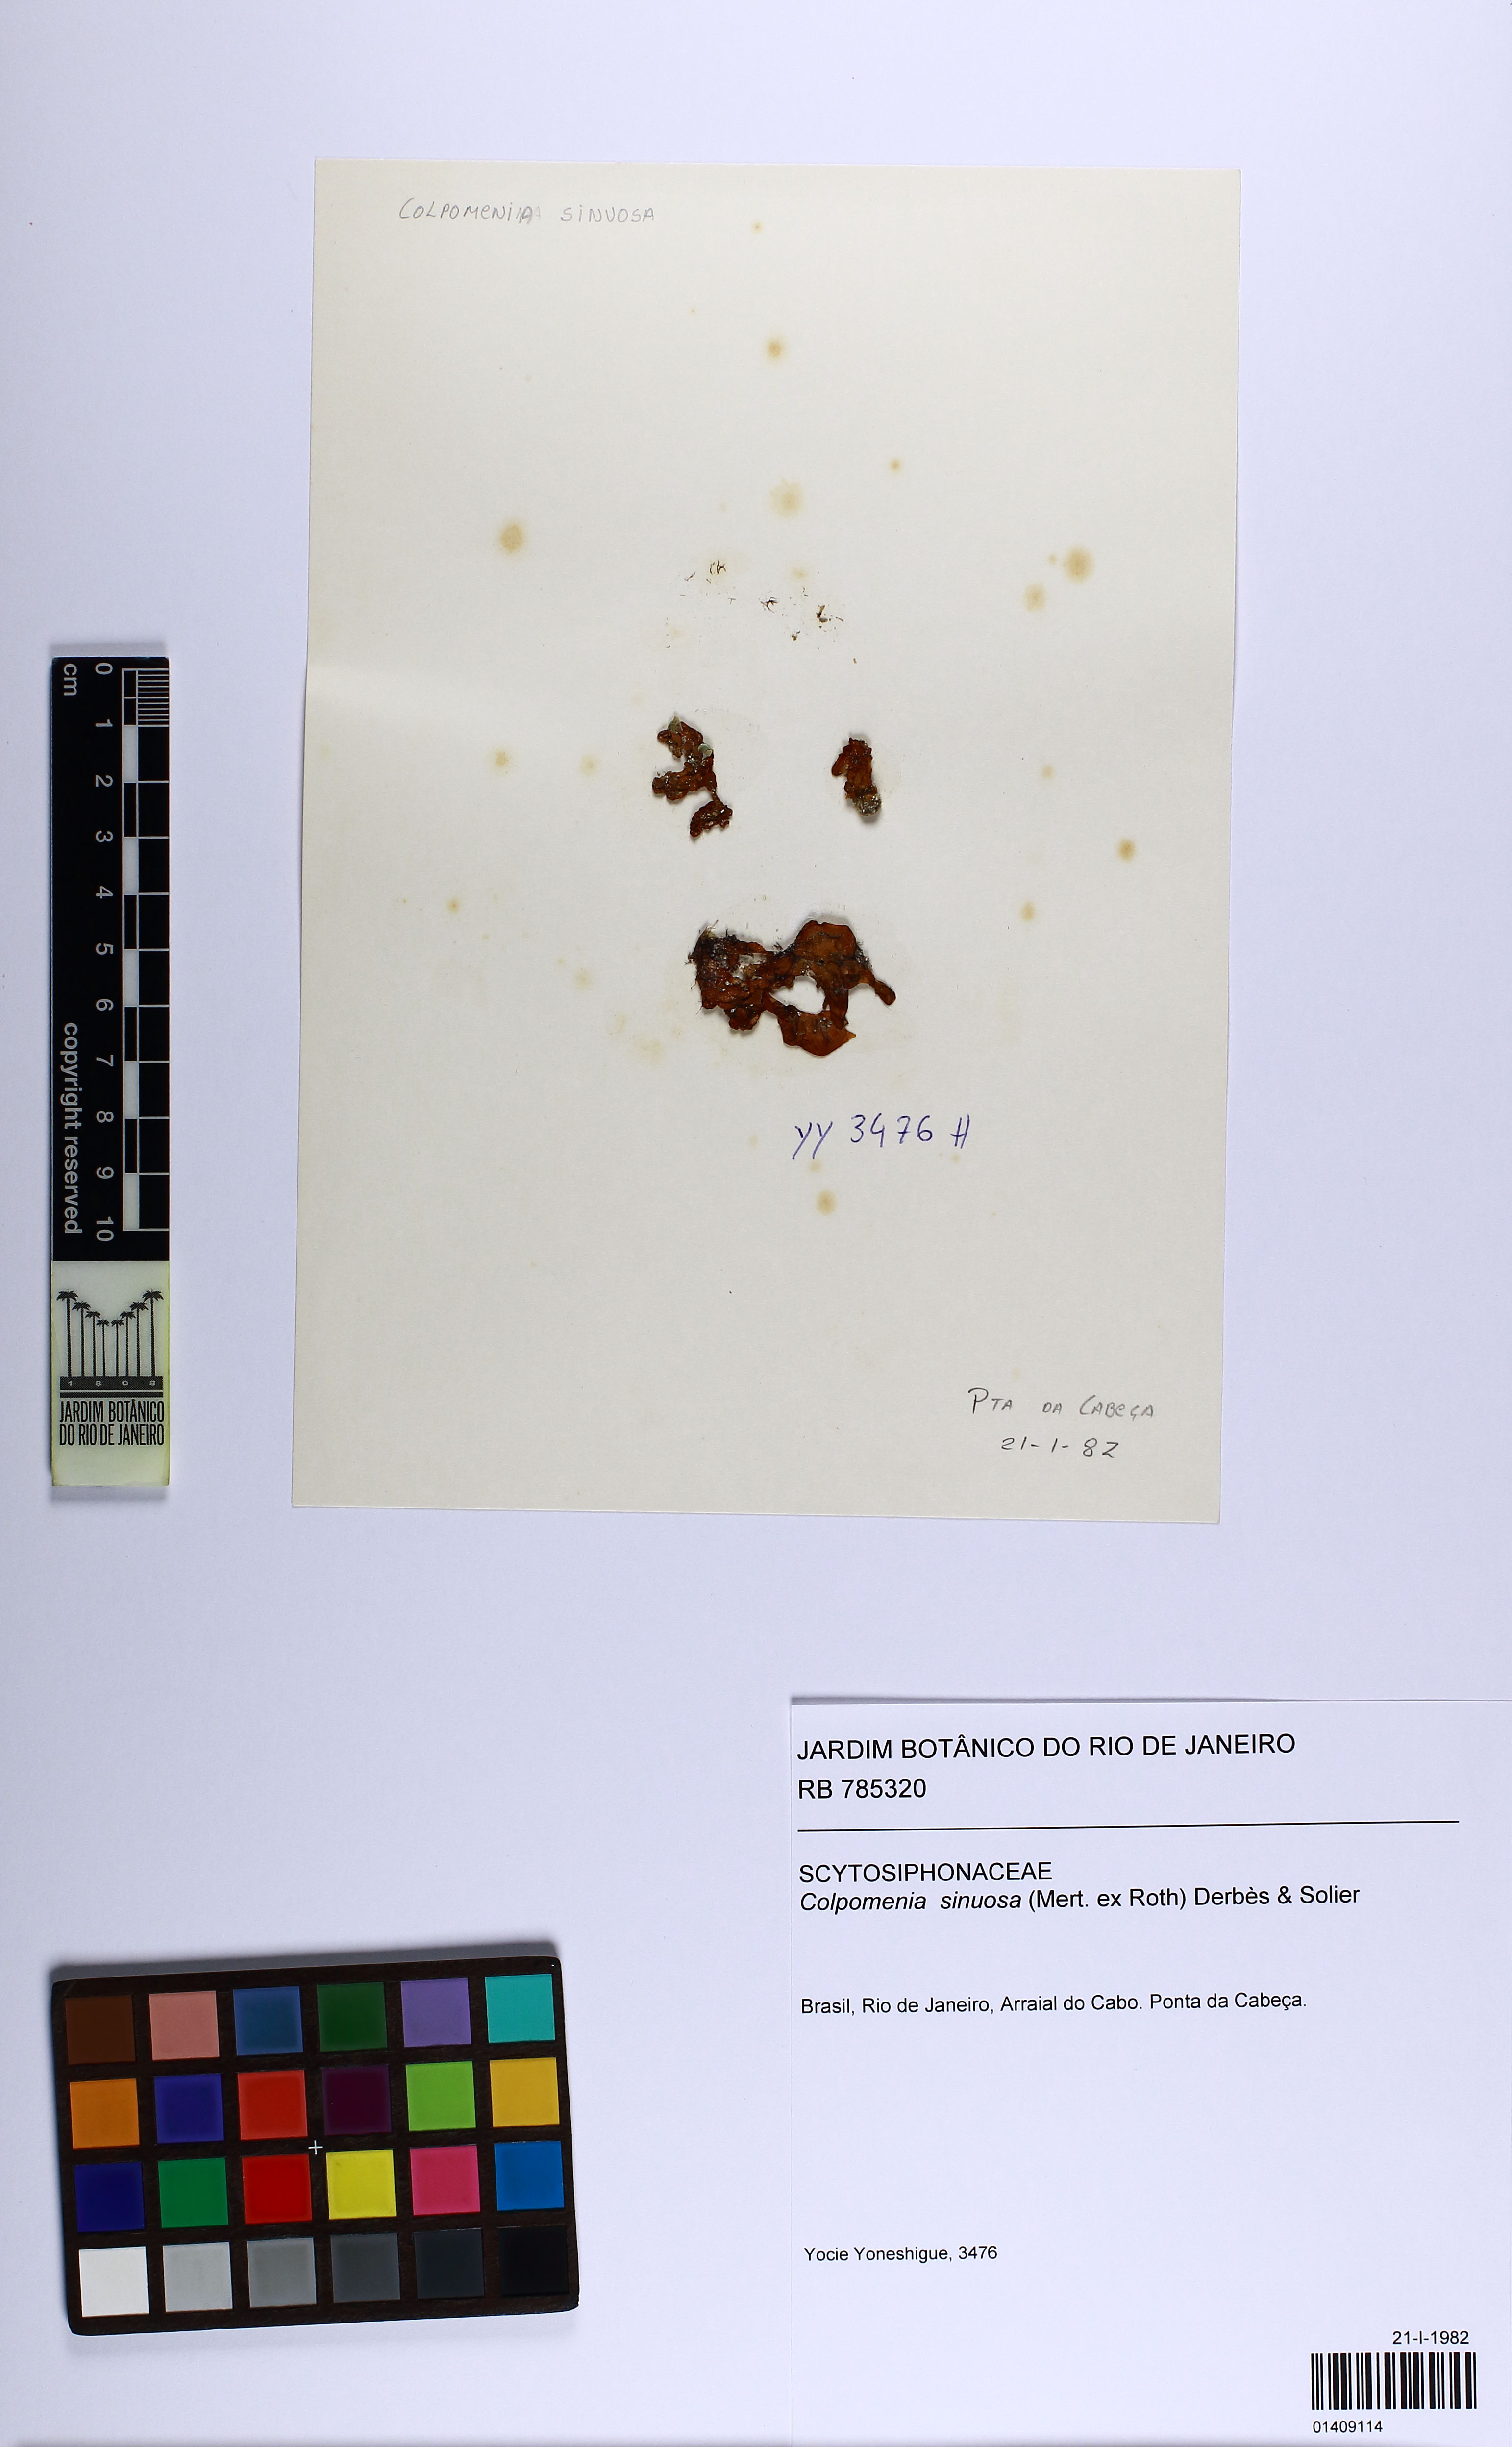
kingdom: Chromista
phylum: Ochrophyta
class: Phaeophyceae
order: Scytosiphonales
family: Scytosiphonaceae
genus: Colpomenia
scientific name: Colpomenia sinuosa
